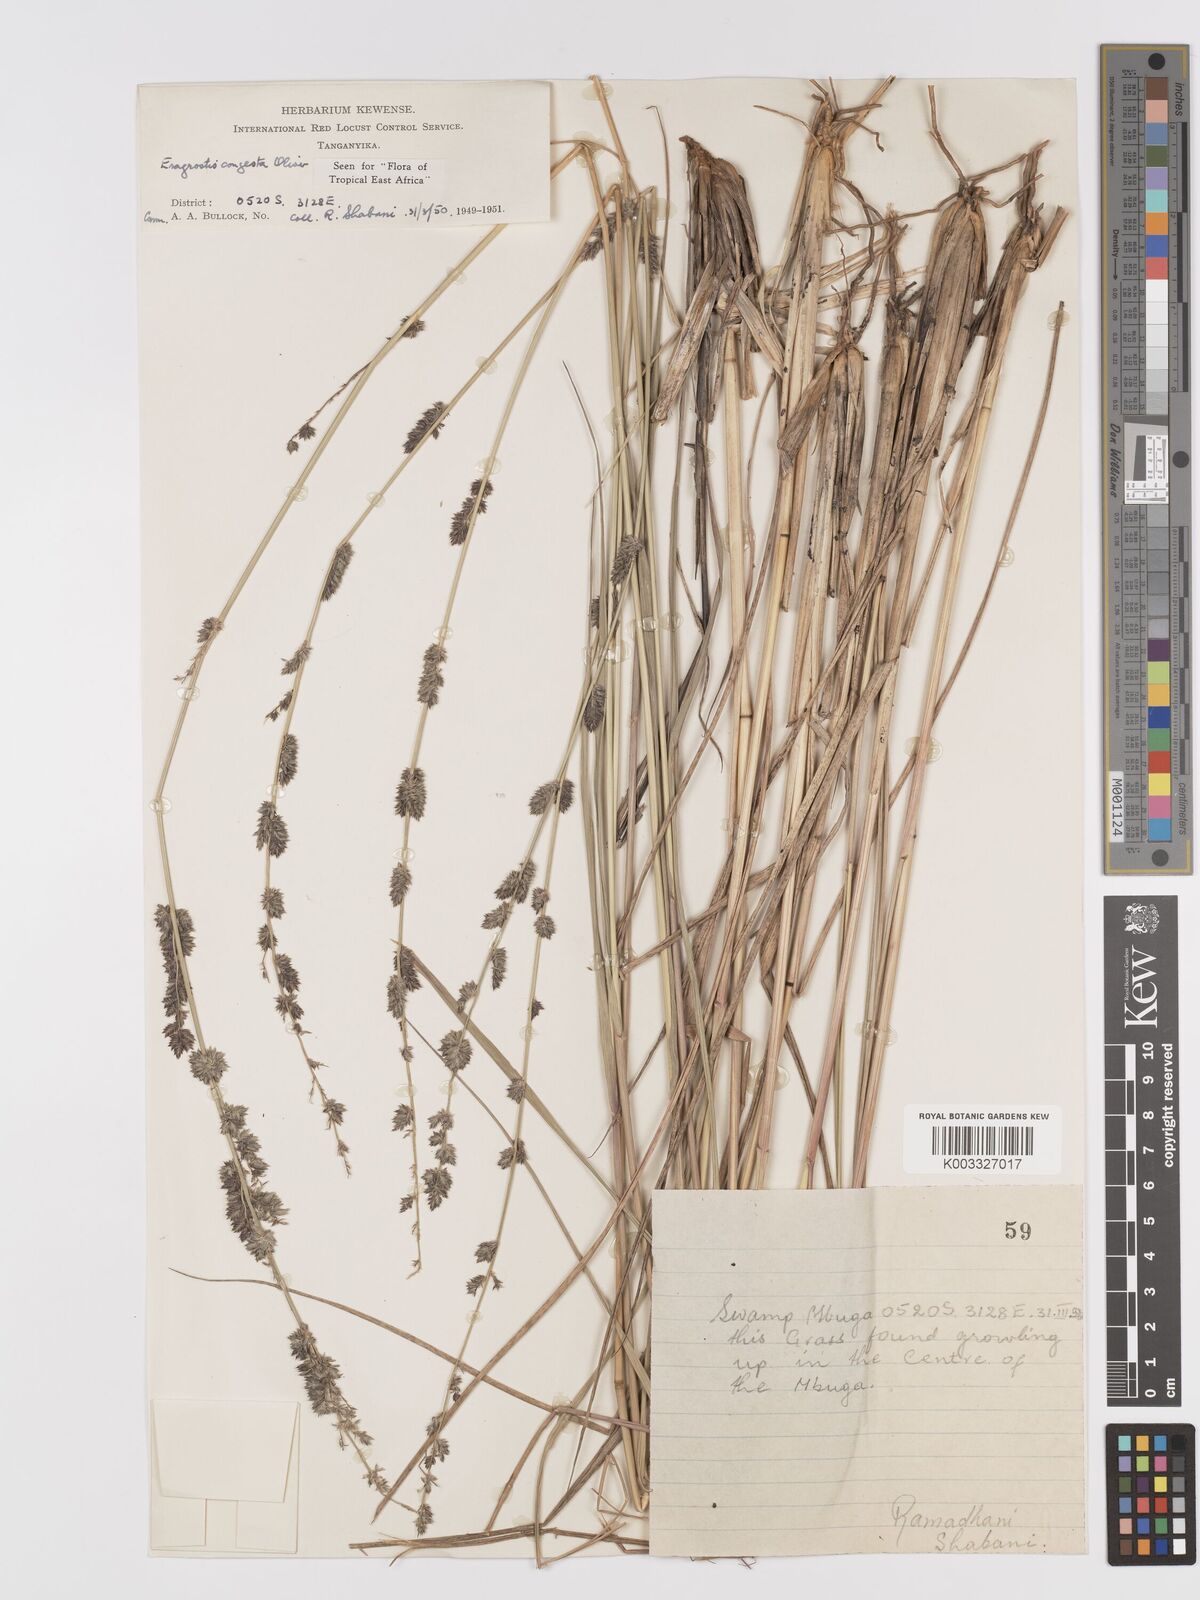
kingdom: Plantae
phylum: Tracheophyta
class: Liliopsida
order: Poales
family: Poaceae
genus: Eragrostis
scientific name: Eragrostis congesta
